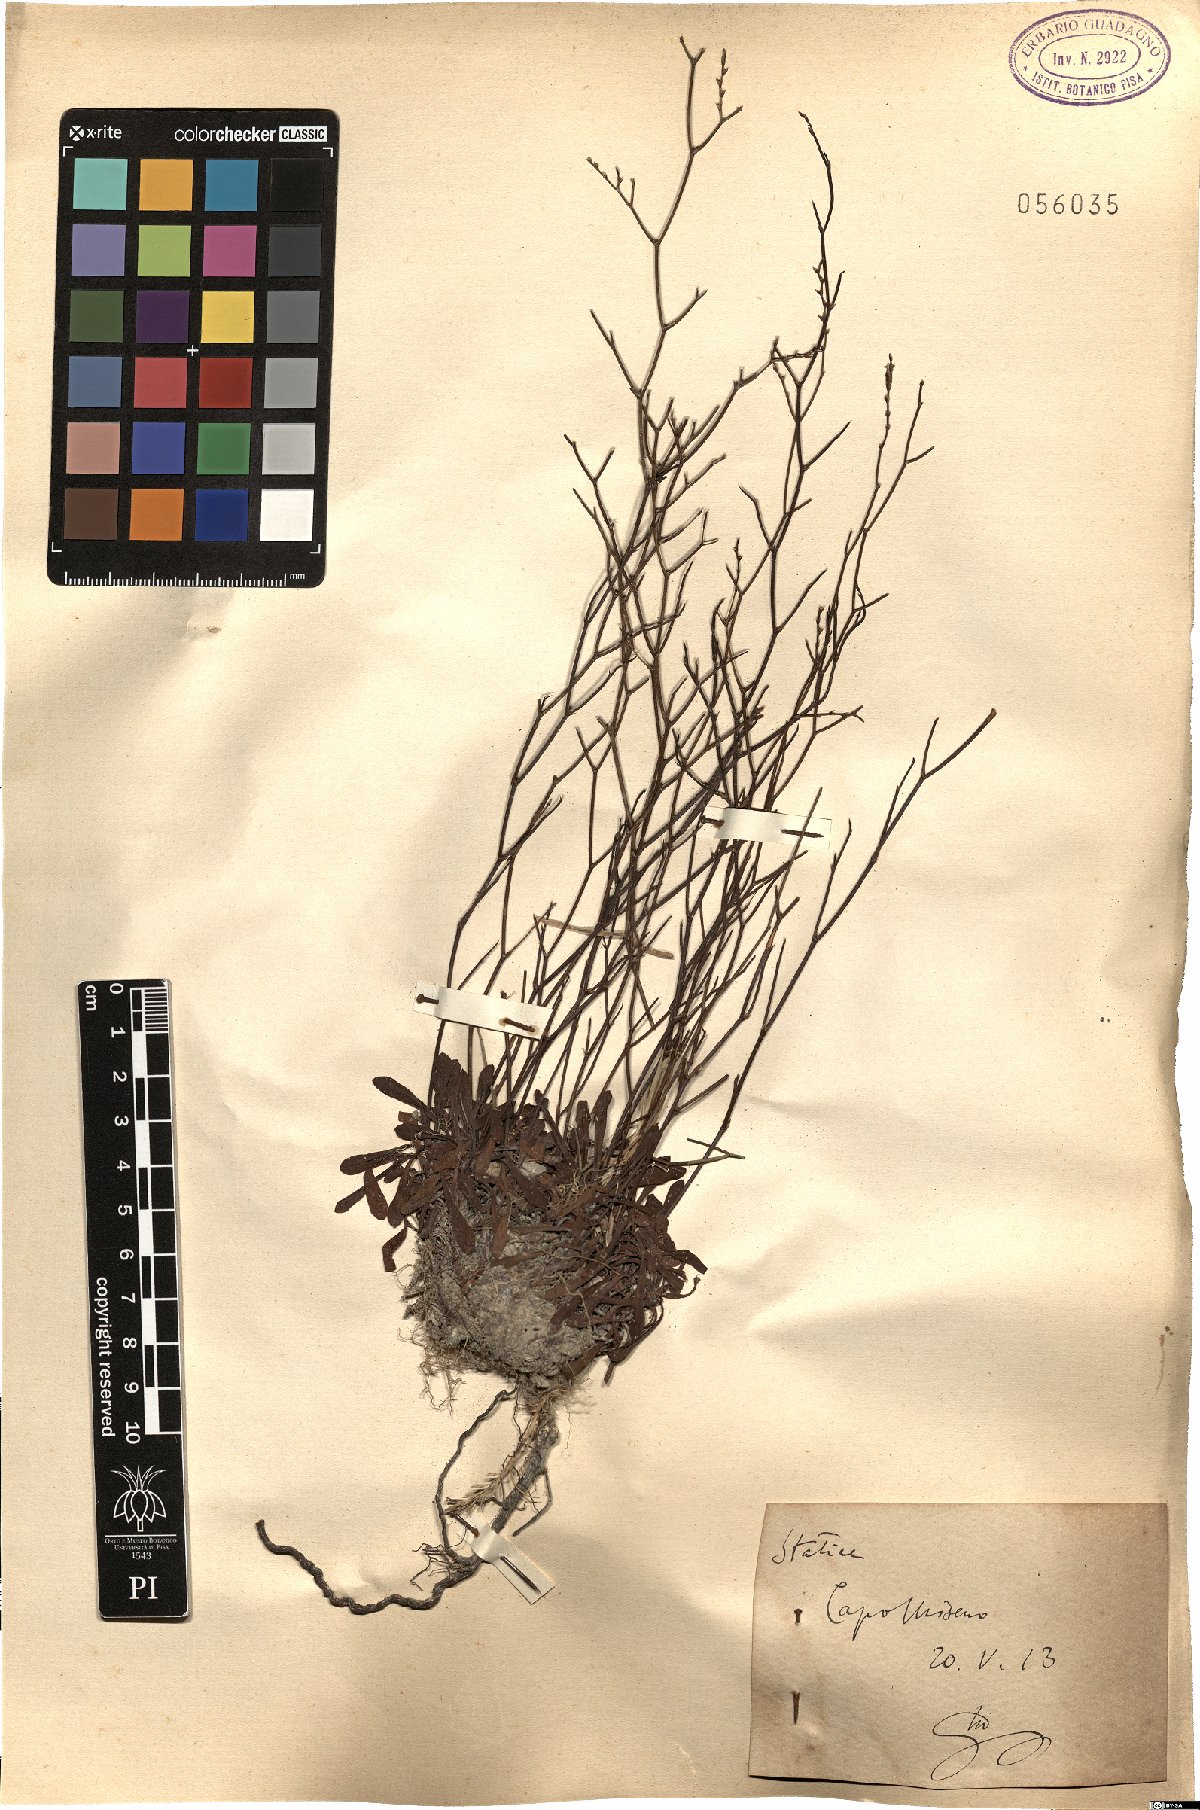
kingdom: Plantae
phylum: Tracheophyta
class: Magnoliopsida
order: Caryophyllales
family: Plumbaginaceae
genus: Armeria
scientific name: Armeria
